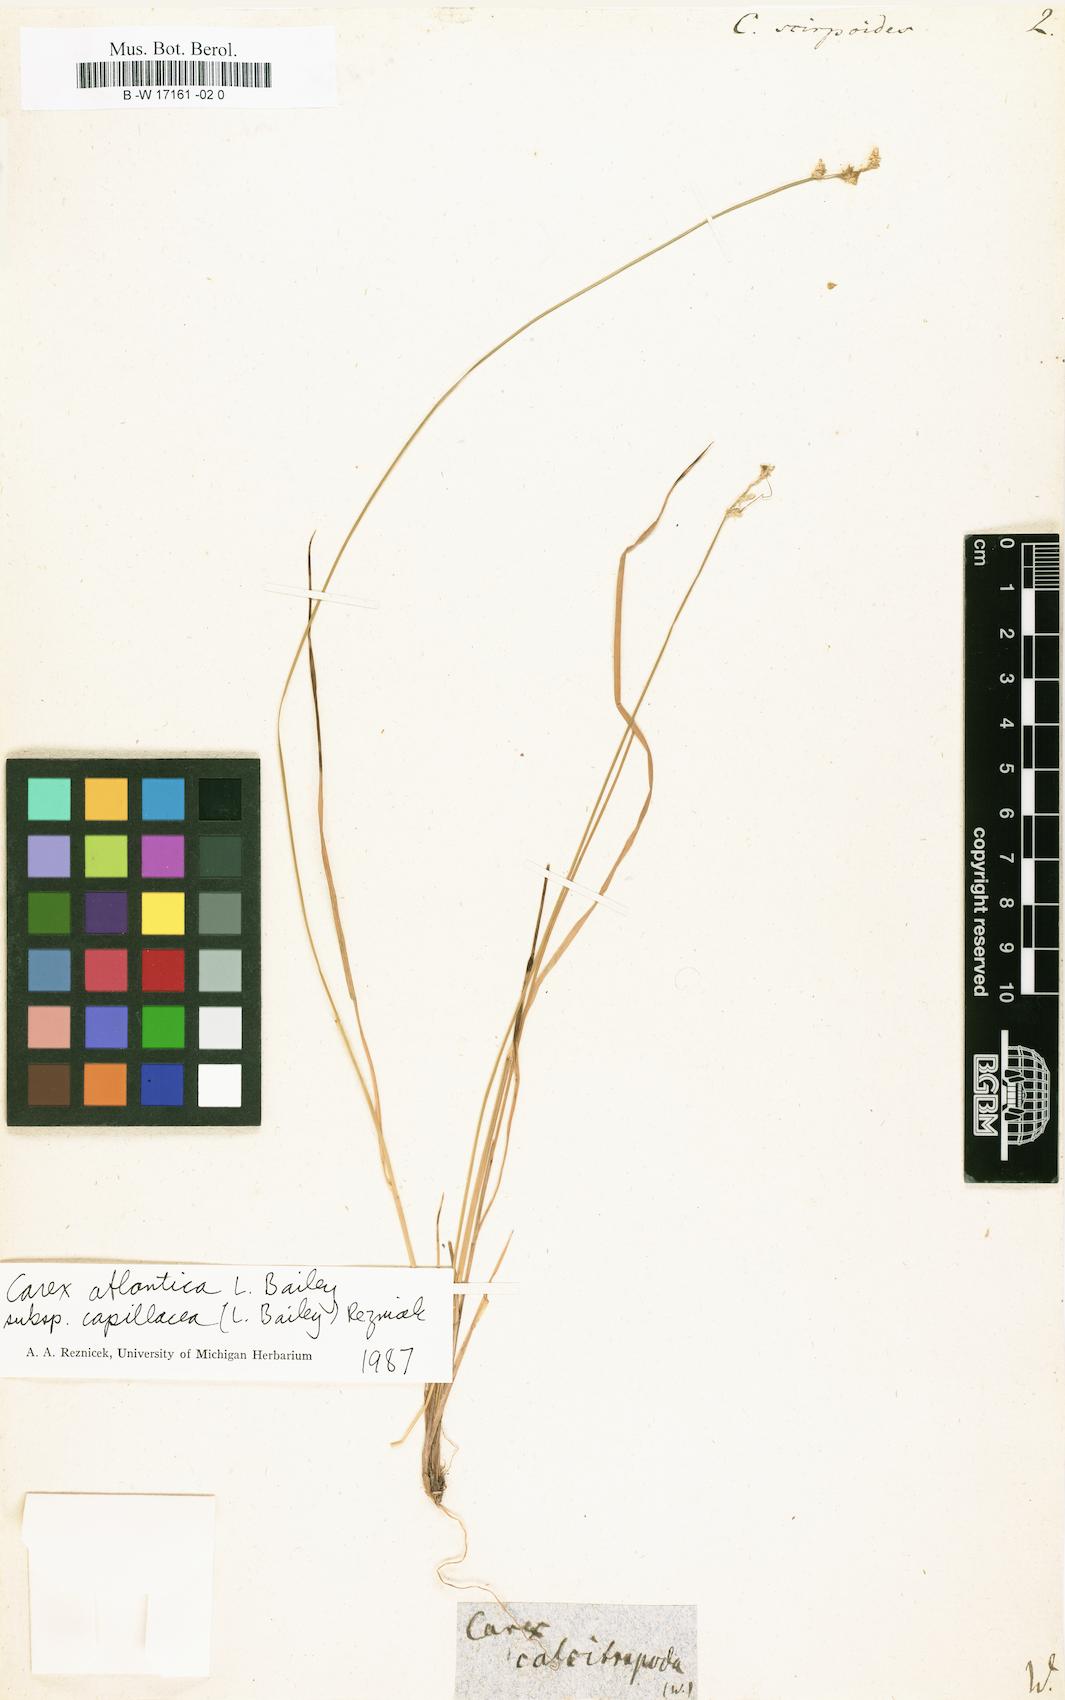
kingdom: Plantae
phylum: Tracheophyta
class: Liliopsida
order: Poales
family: Cyperaceae
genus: Carex
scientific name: Carex interior
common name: Inland sedge
